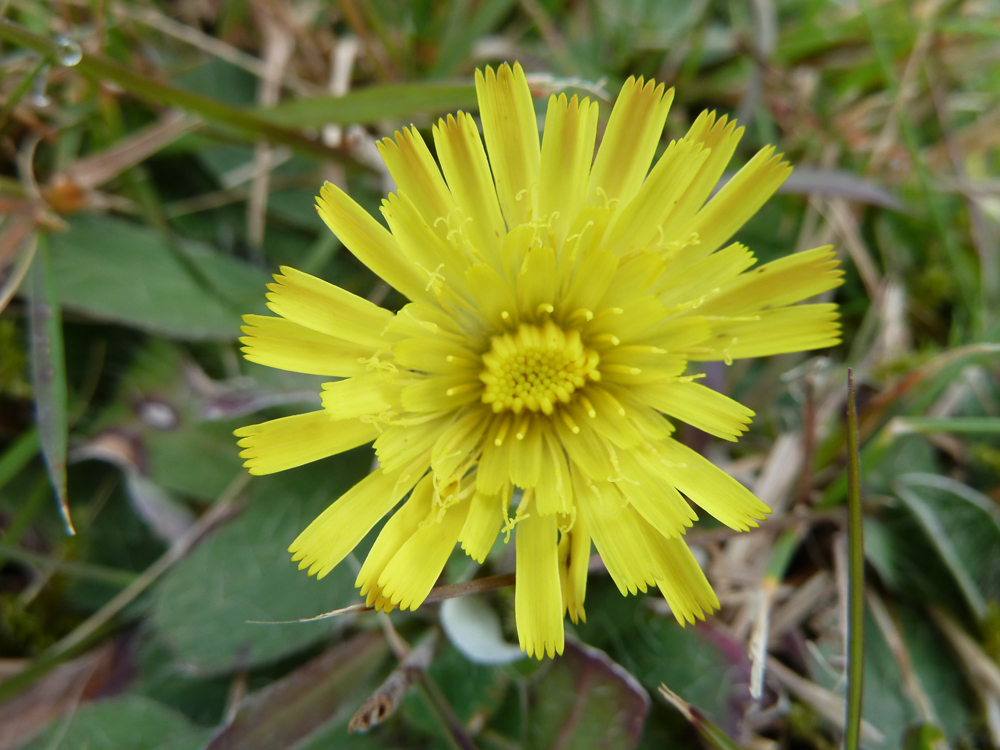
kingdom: Plantae
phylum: Tracheophyta
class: Magnoliopsida
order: Asterales
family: Asteraceae
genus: Pilosella
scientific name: Pilosella officinarum
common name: Mouse-ear hawkweed
